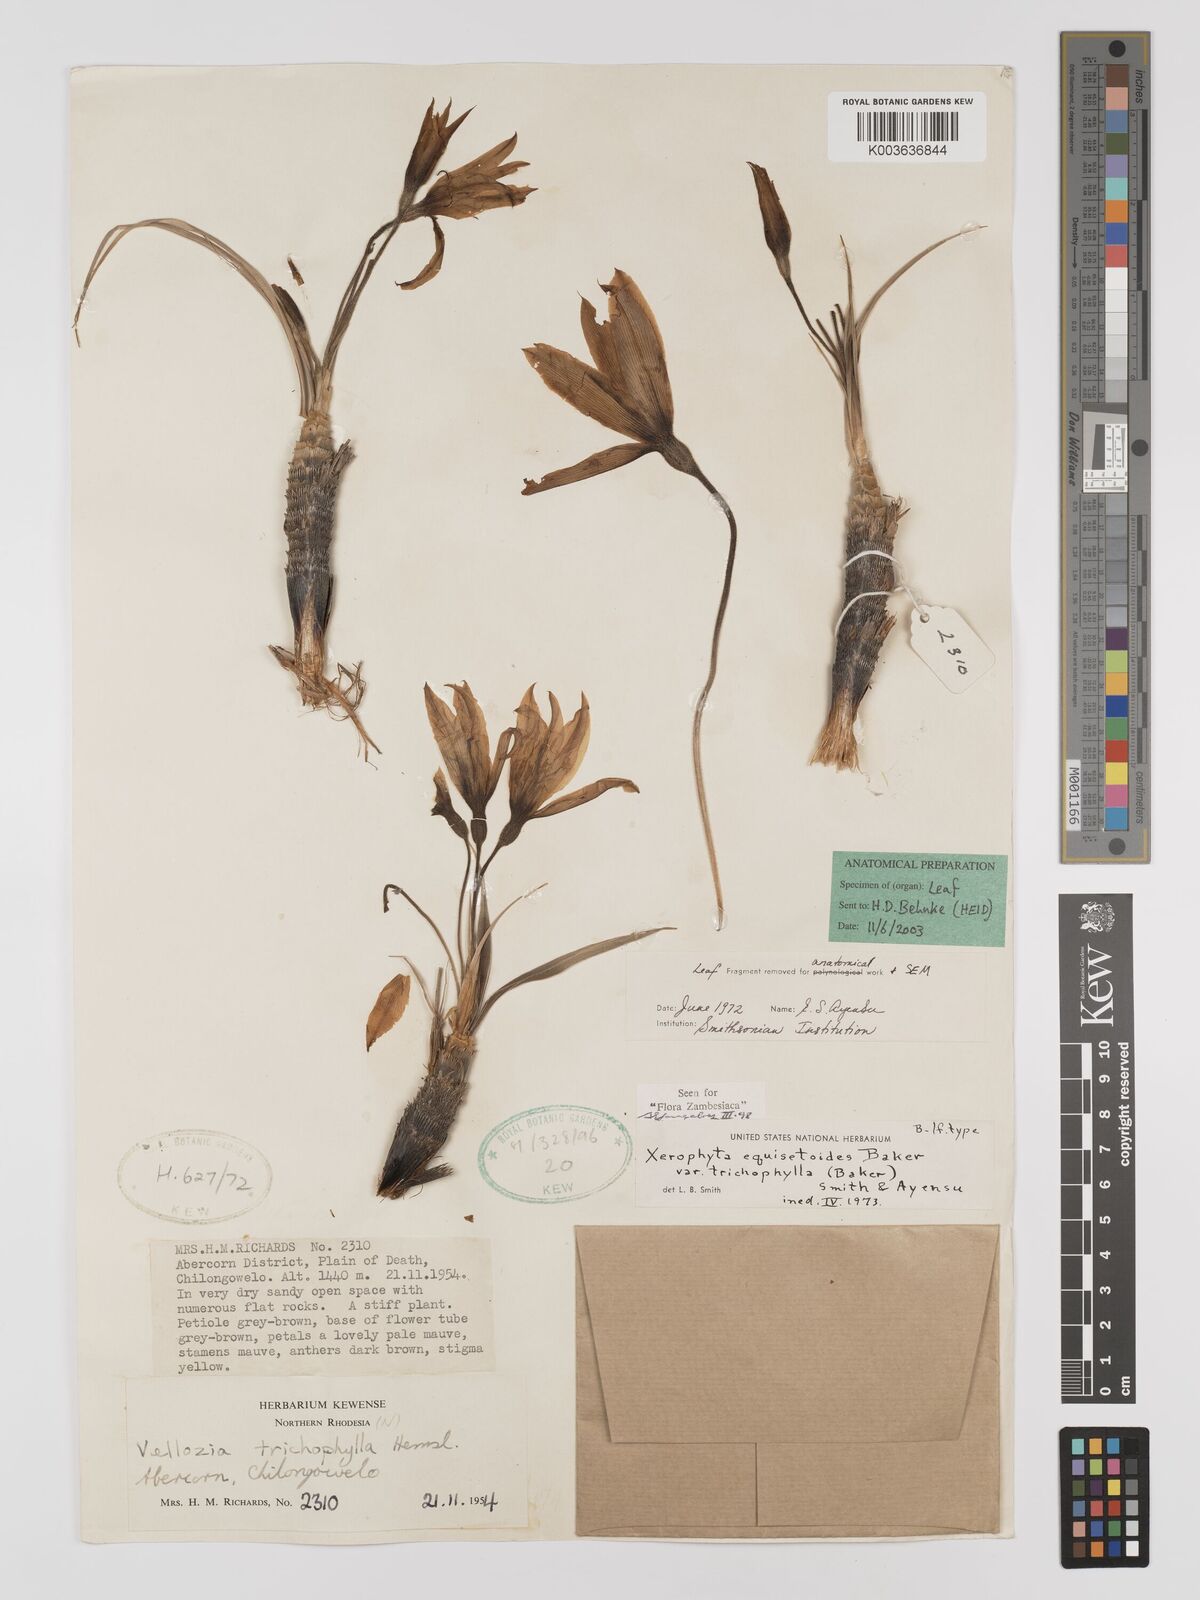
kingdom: Plantae
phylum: Tracheophyta
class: Liliopsida
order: Pandanales
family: Velloziaceae
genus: Xerophyta
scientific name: Xerophyta trichophylla
